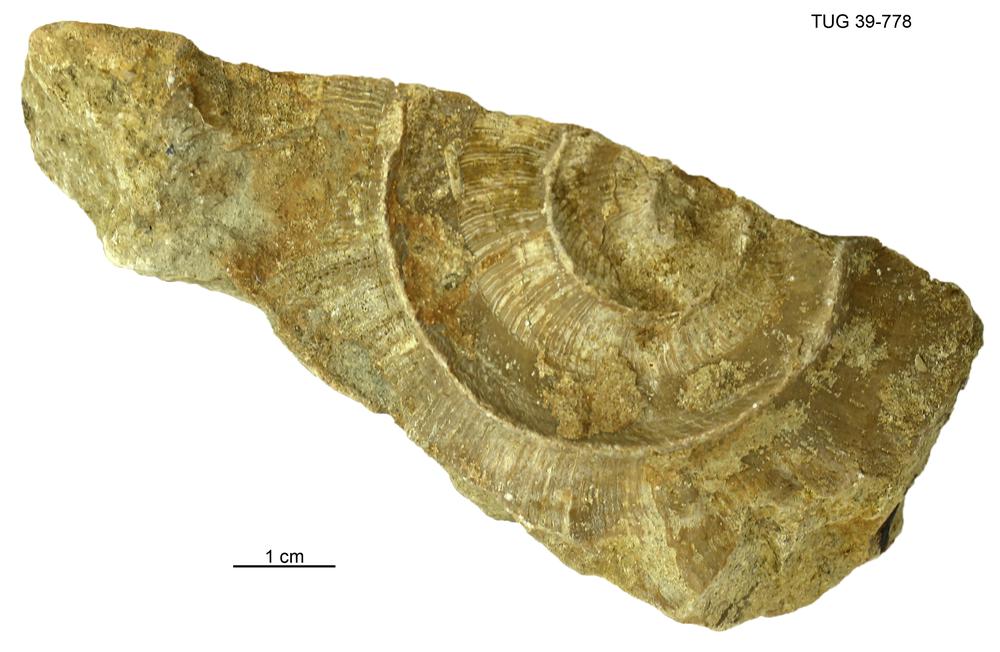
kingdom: Animalia
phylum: Mollusca
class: Cephalopoda
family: Trocholitidae
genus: Discoceras
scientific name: Discoceras
